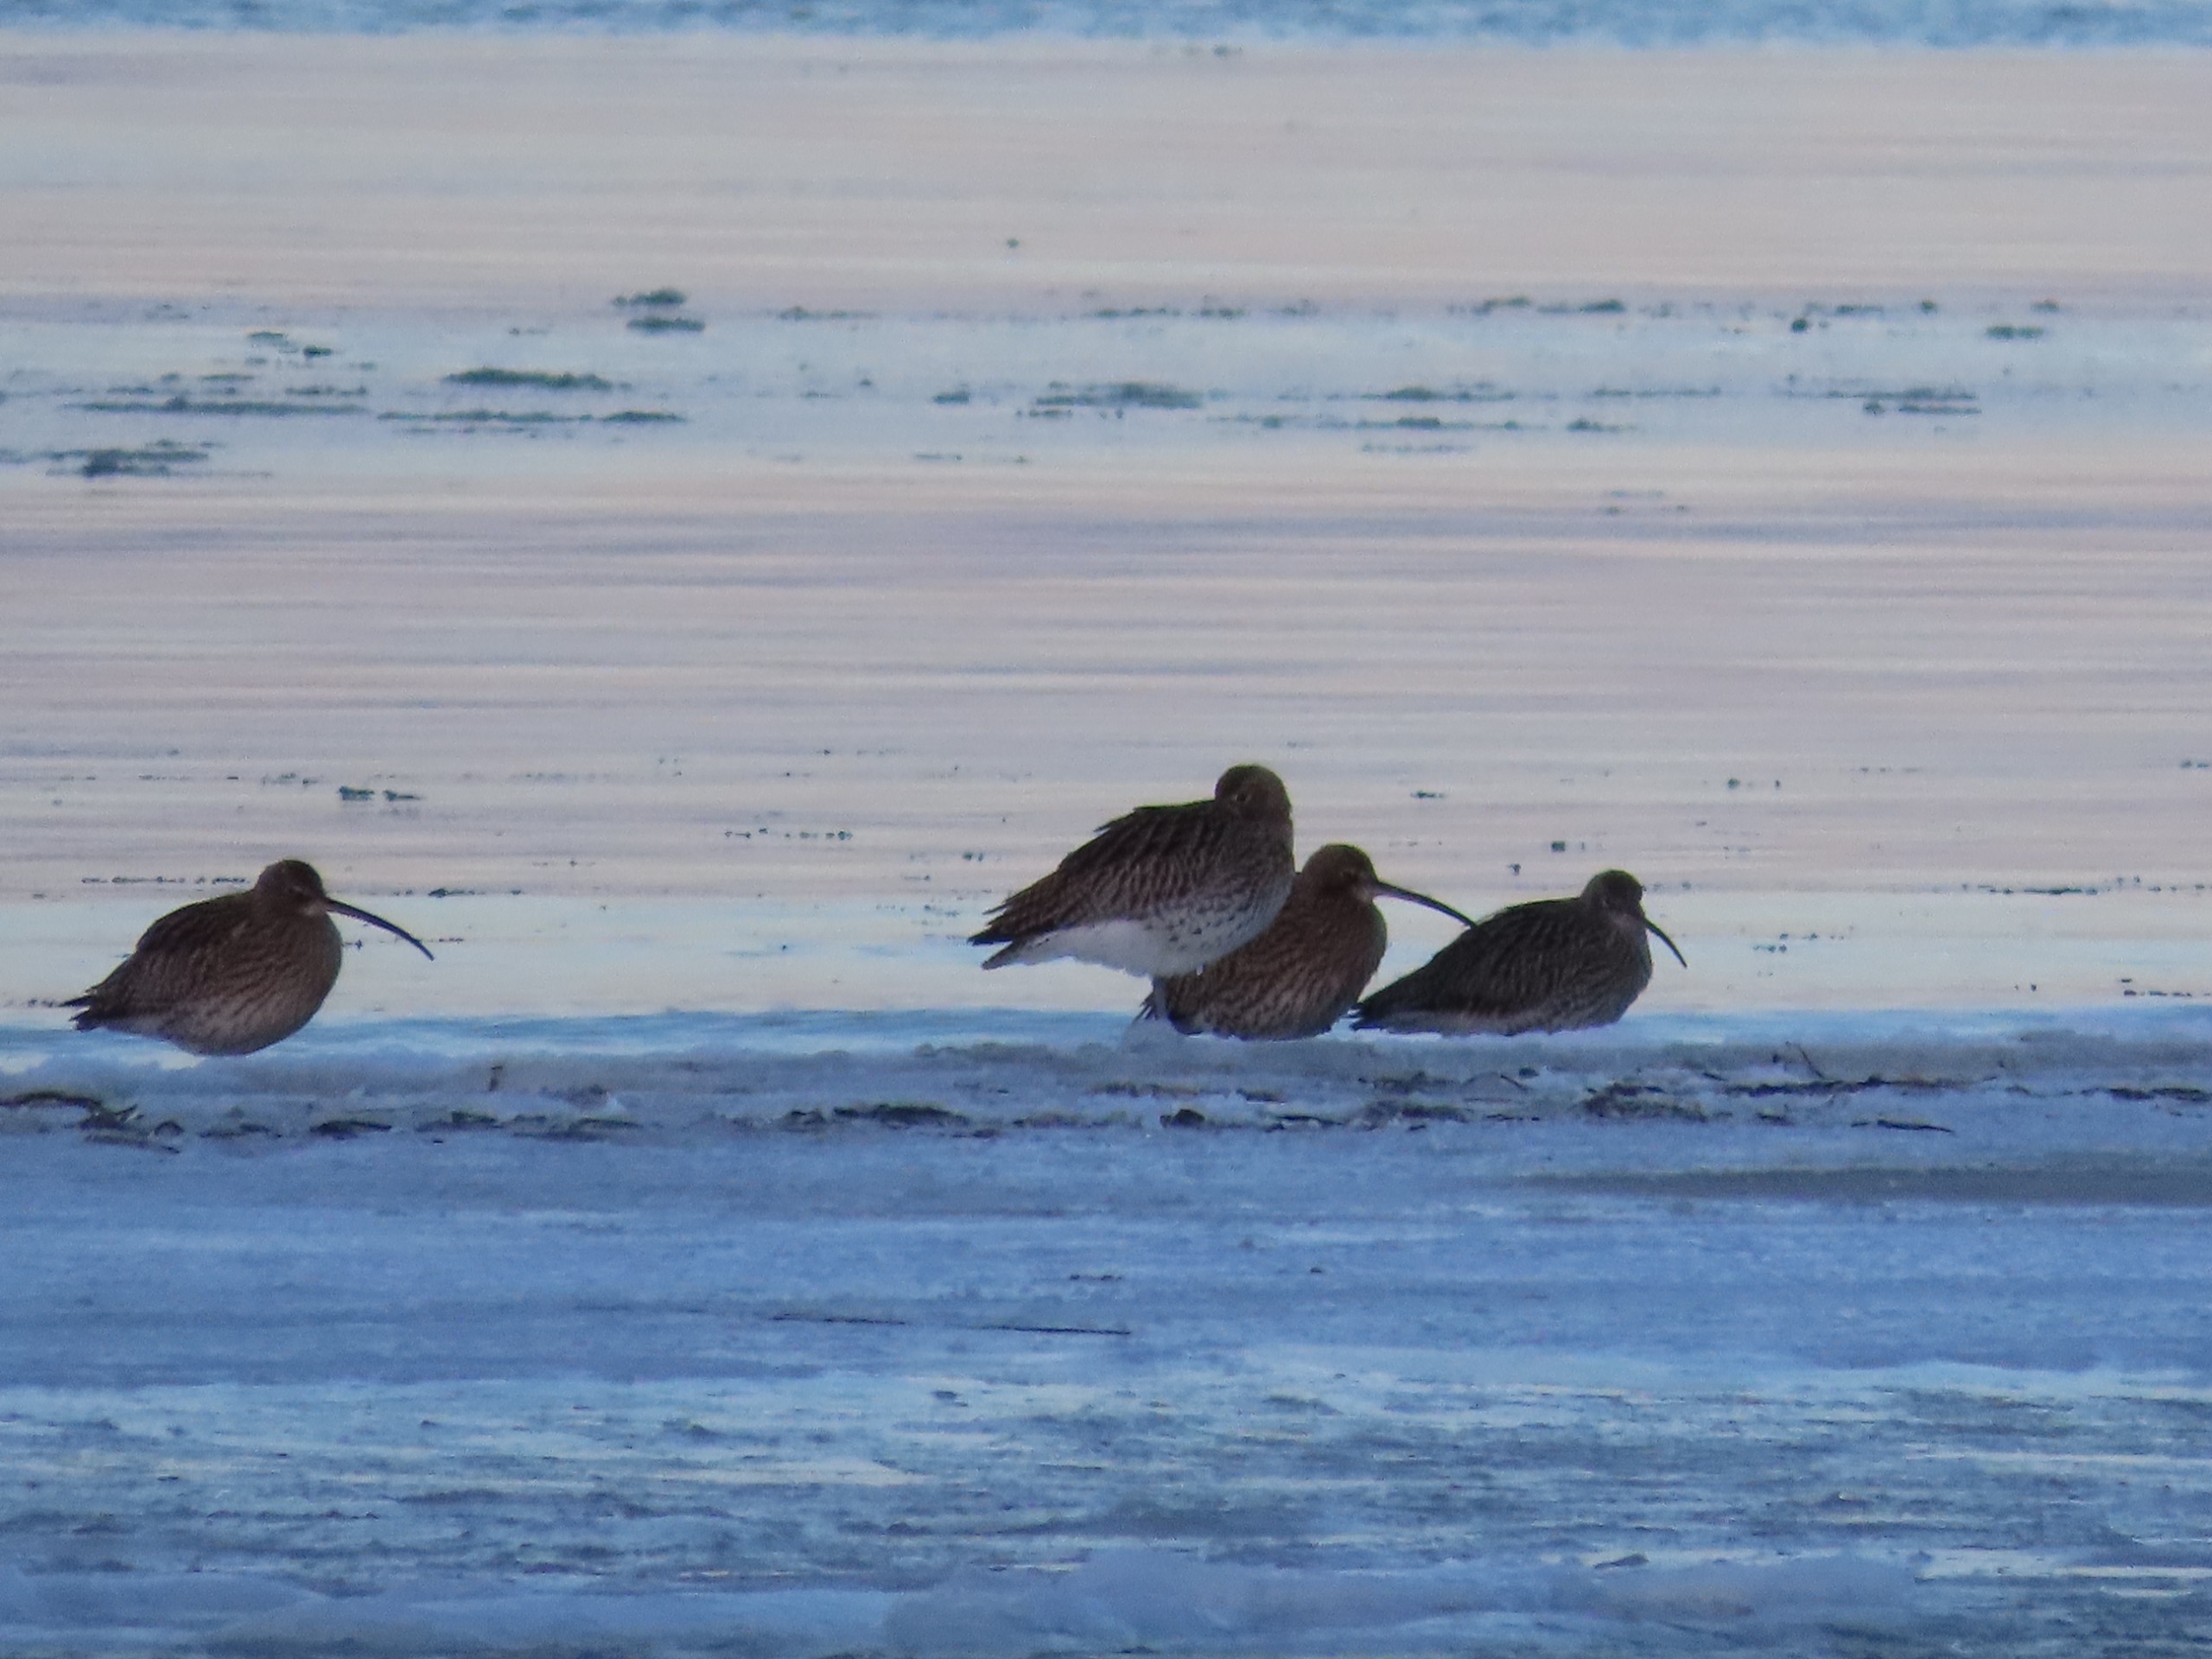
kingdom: Animalia
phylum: Chordata
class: Aves
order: Charadriiformes
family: Scolopacidae
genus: Numenius
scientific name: Numenius arquata
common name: Storspove
